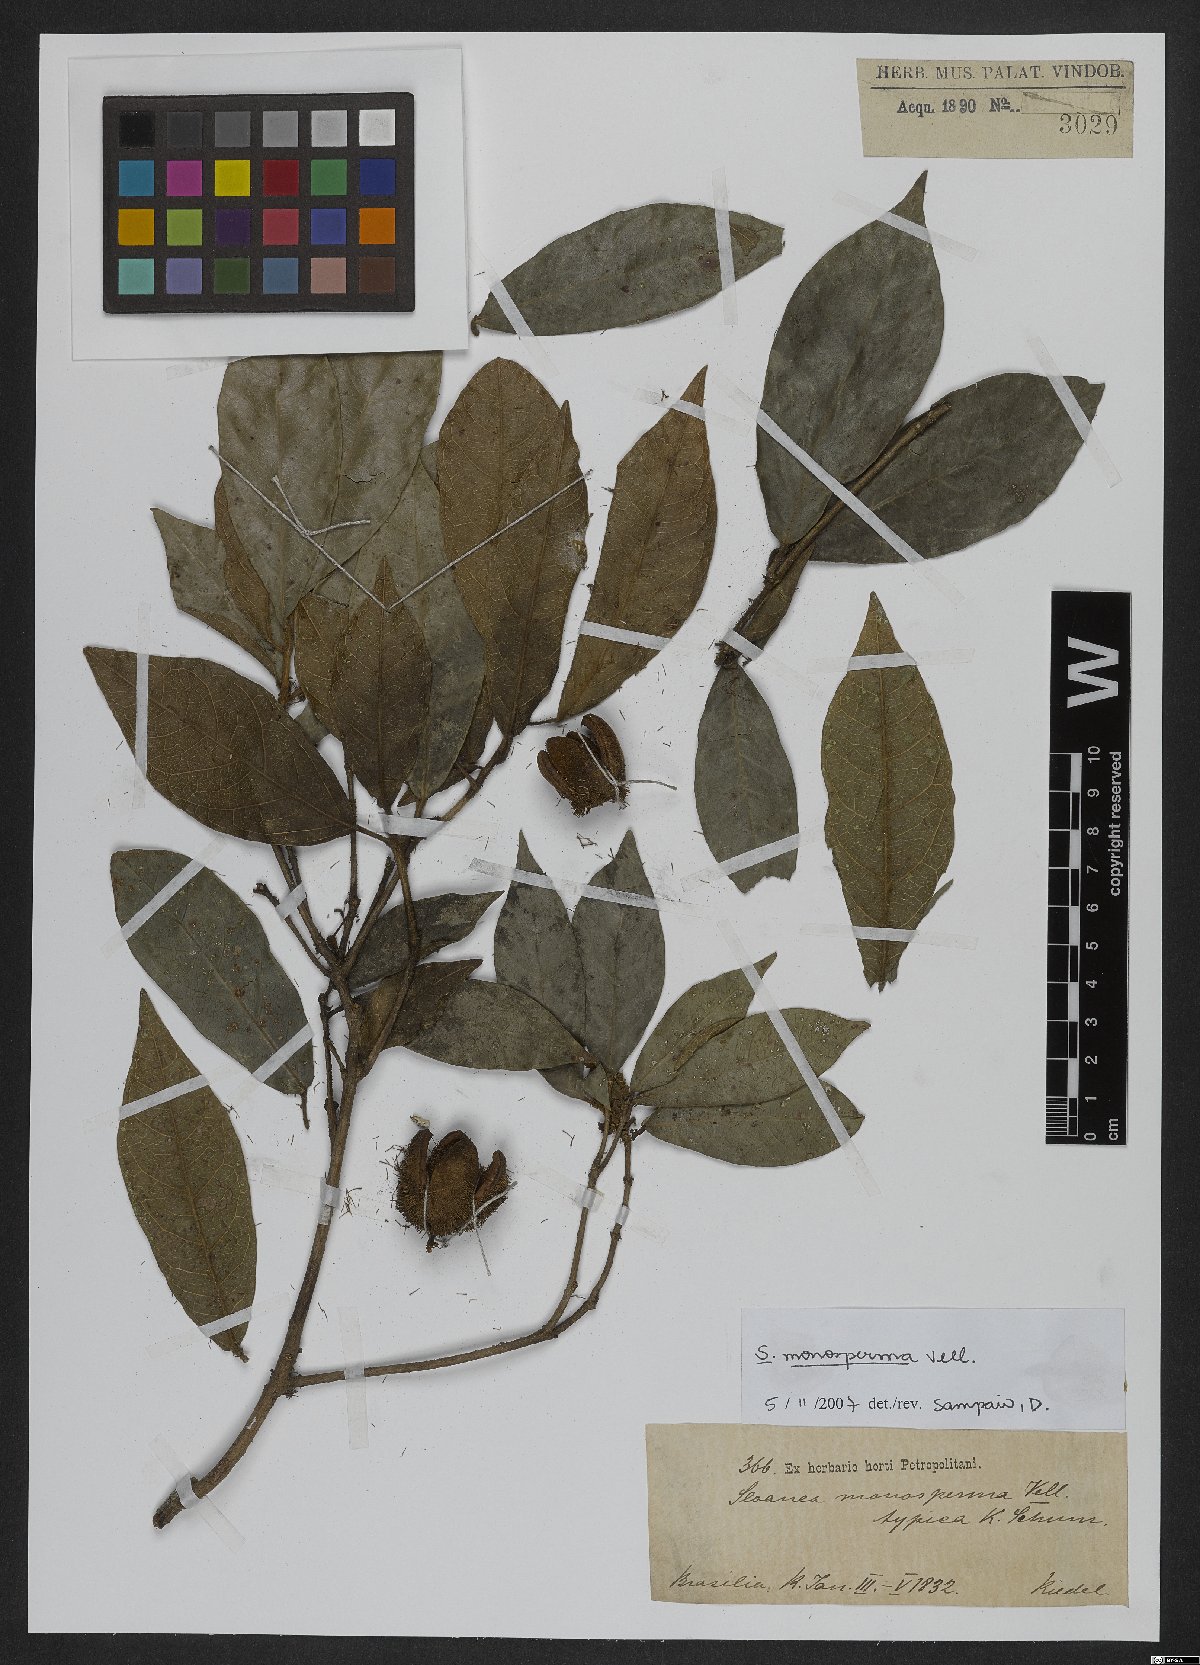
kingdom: Plantae
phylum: Tracheophyta
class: Magnoliopsida
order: Oxalidales
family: Elaeocarpaceae
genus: Sloanea
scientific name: Sloanea hirsuta
